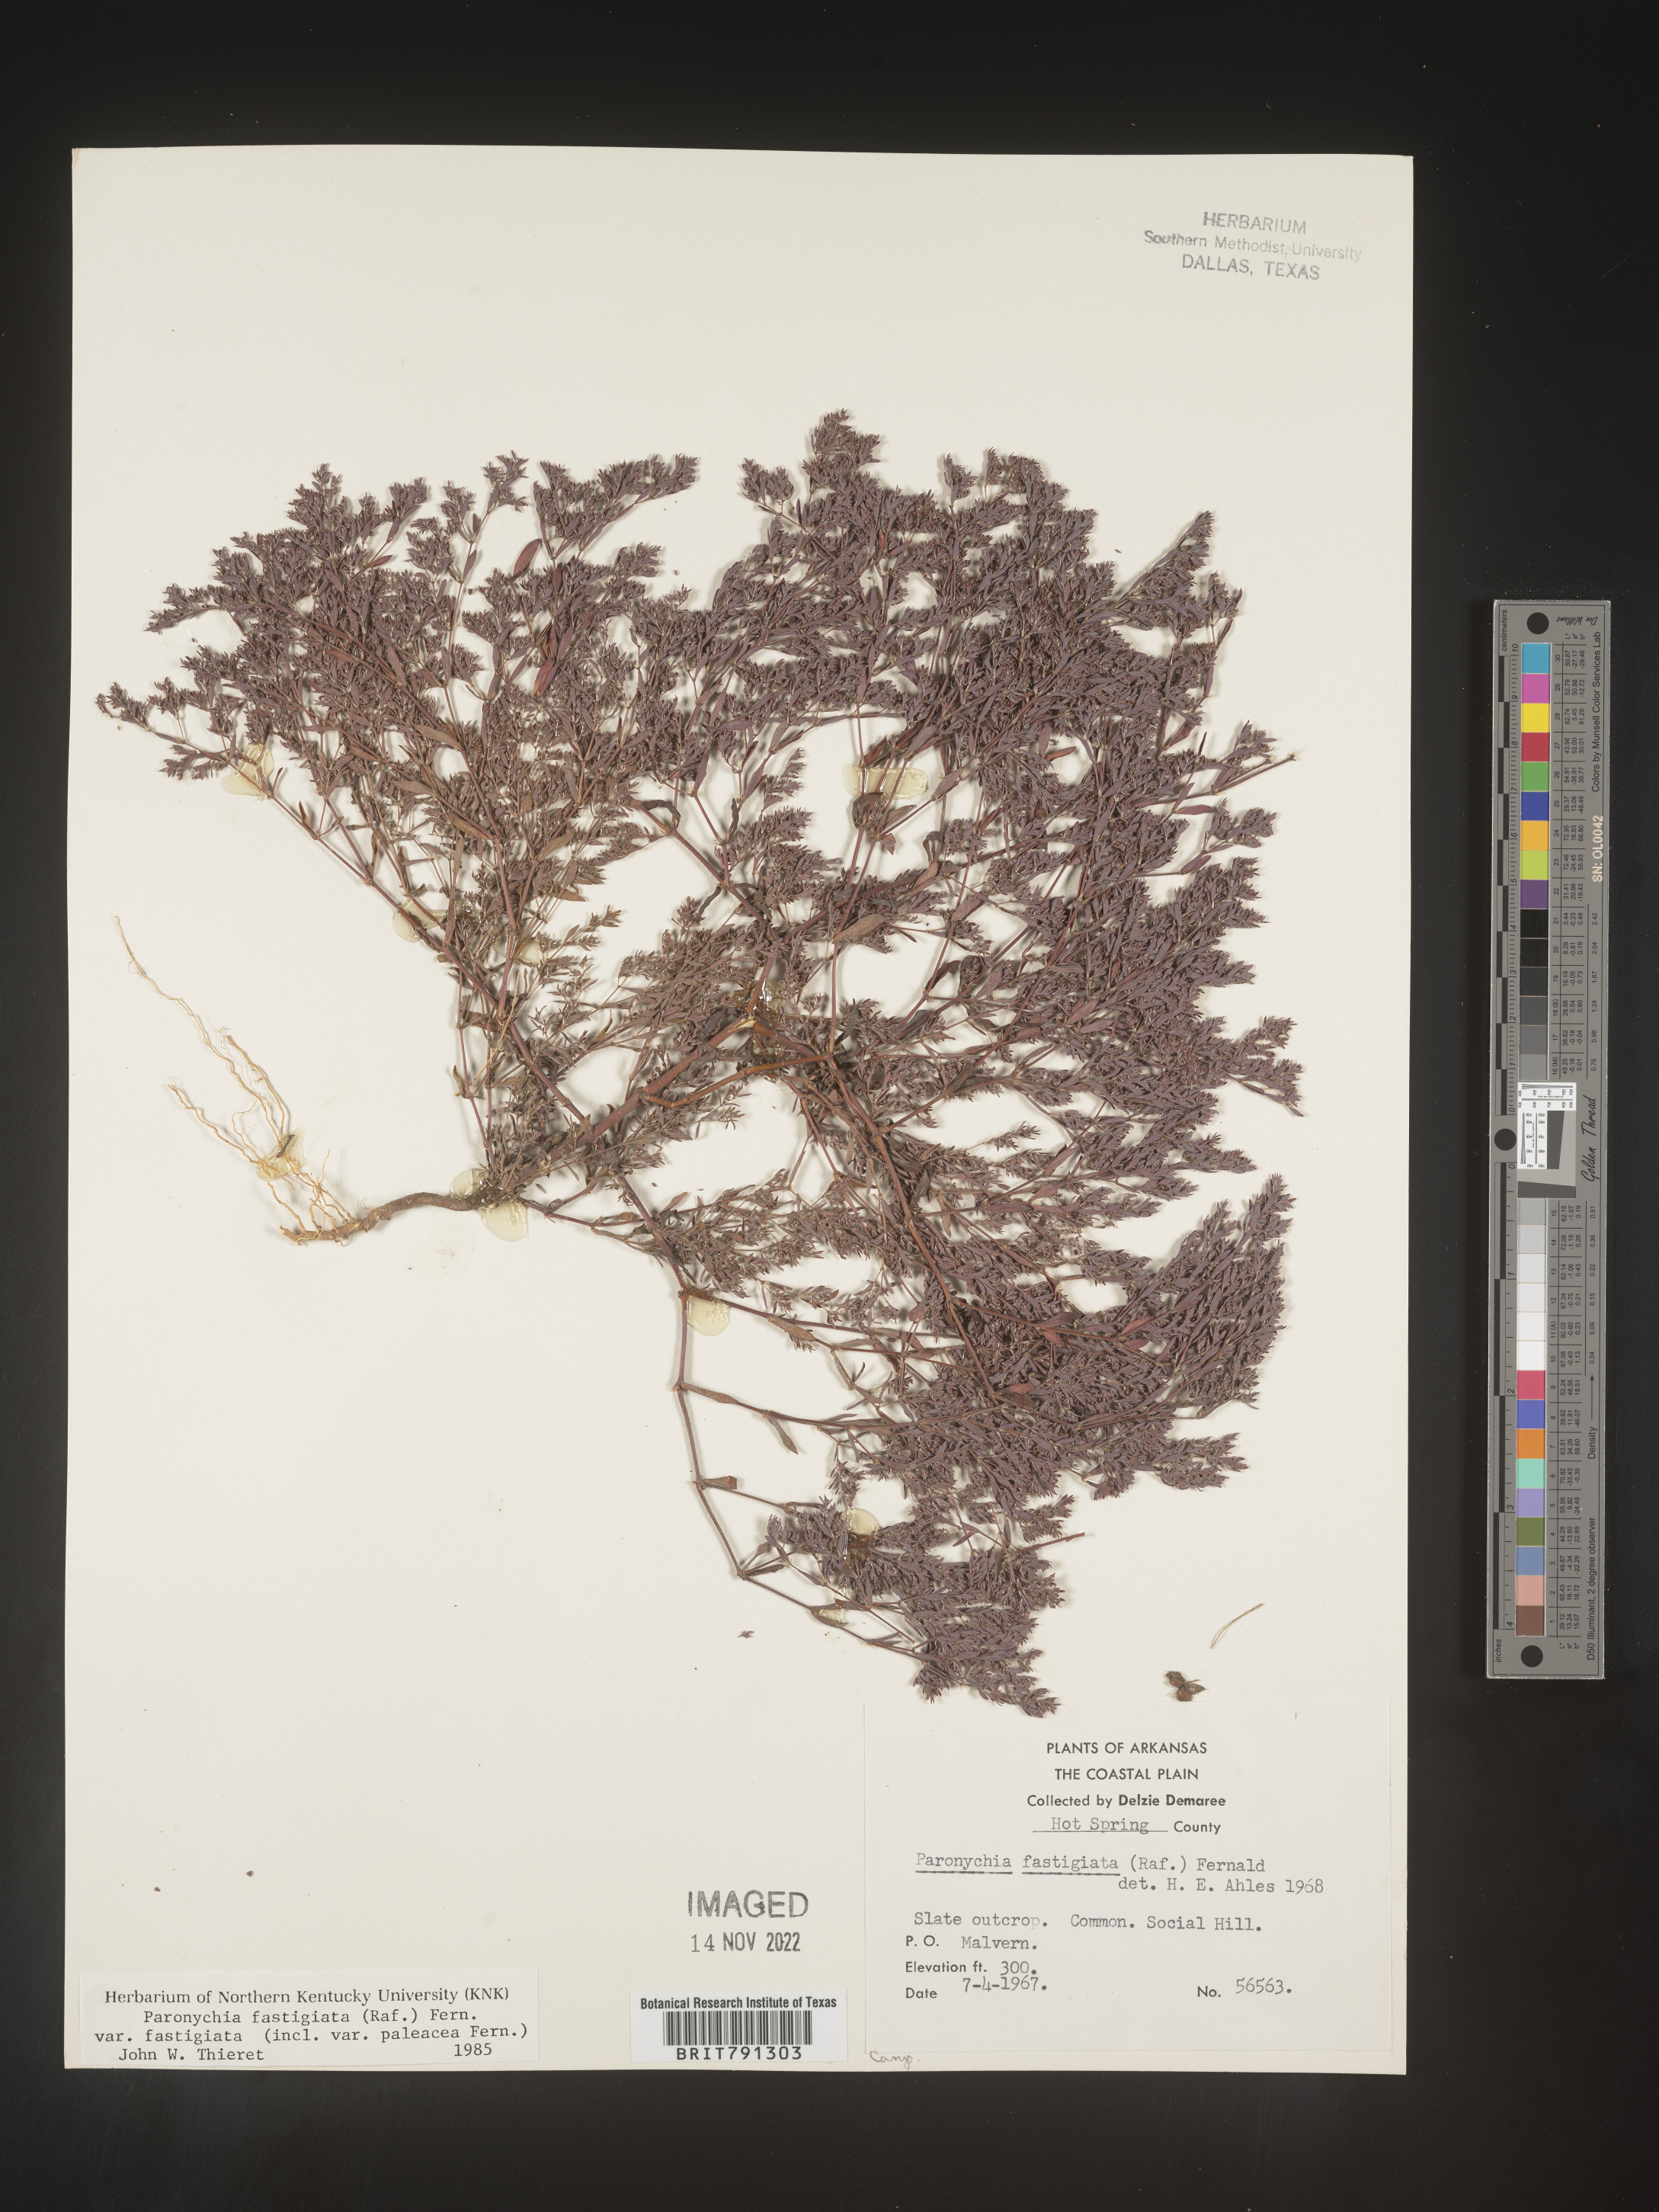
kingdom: Plantae
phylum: Tracheophyta
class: Magnoliopsida
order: Caryophyllales
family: Caryophyllaceae
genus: Paronychia
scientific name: Paronychia fastigiata
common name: Branching forked whitlow-wort
